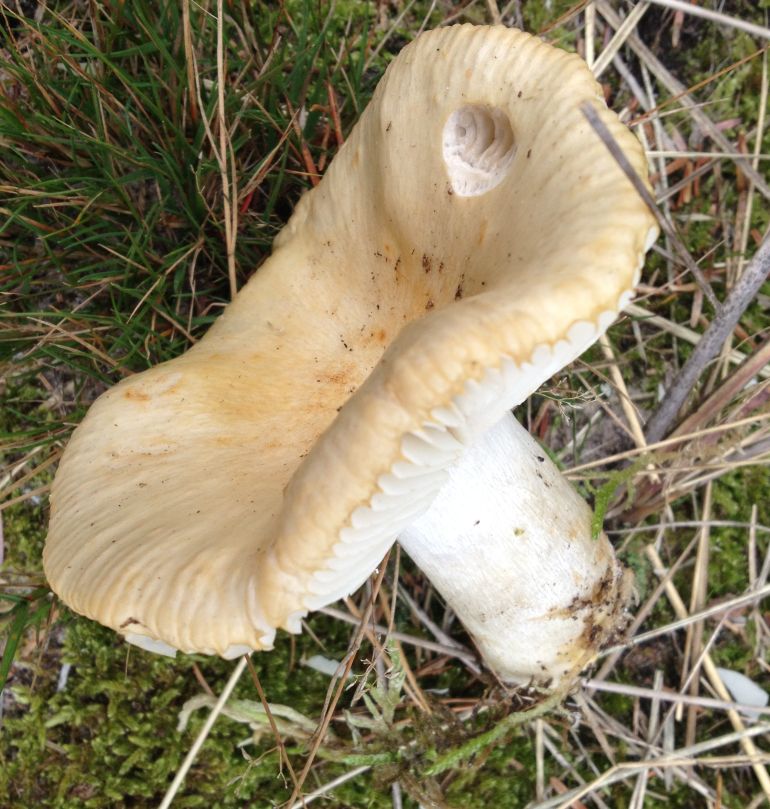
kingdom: Fungi
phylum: Basidiomycota
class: Agaricomycetes
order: Russulales
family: Russulaceae
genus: Russula
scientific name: Russula ochroleuca
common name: okkergul skørhat
